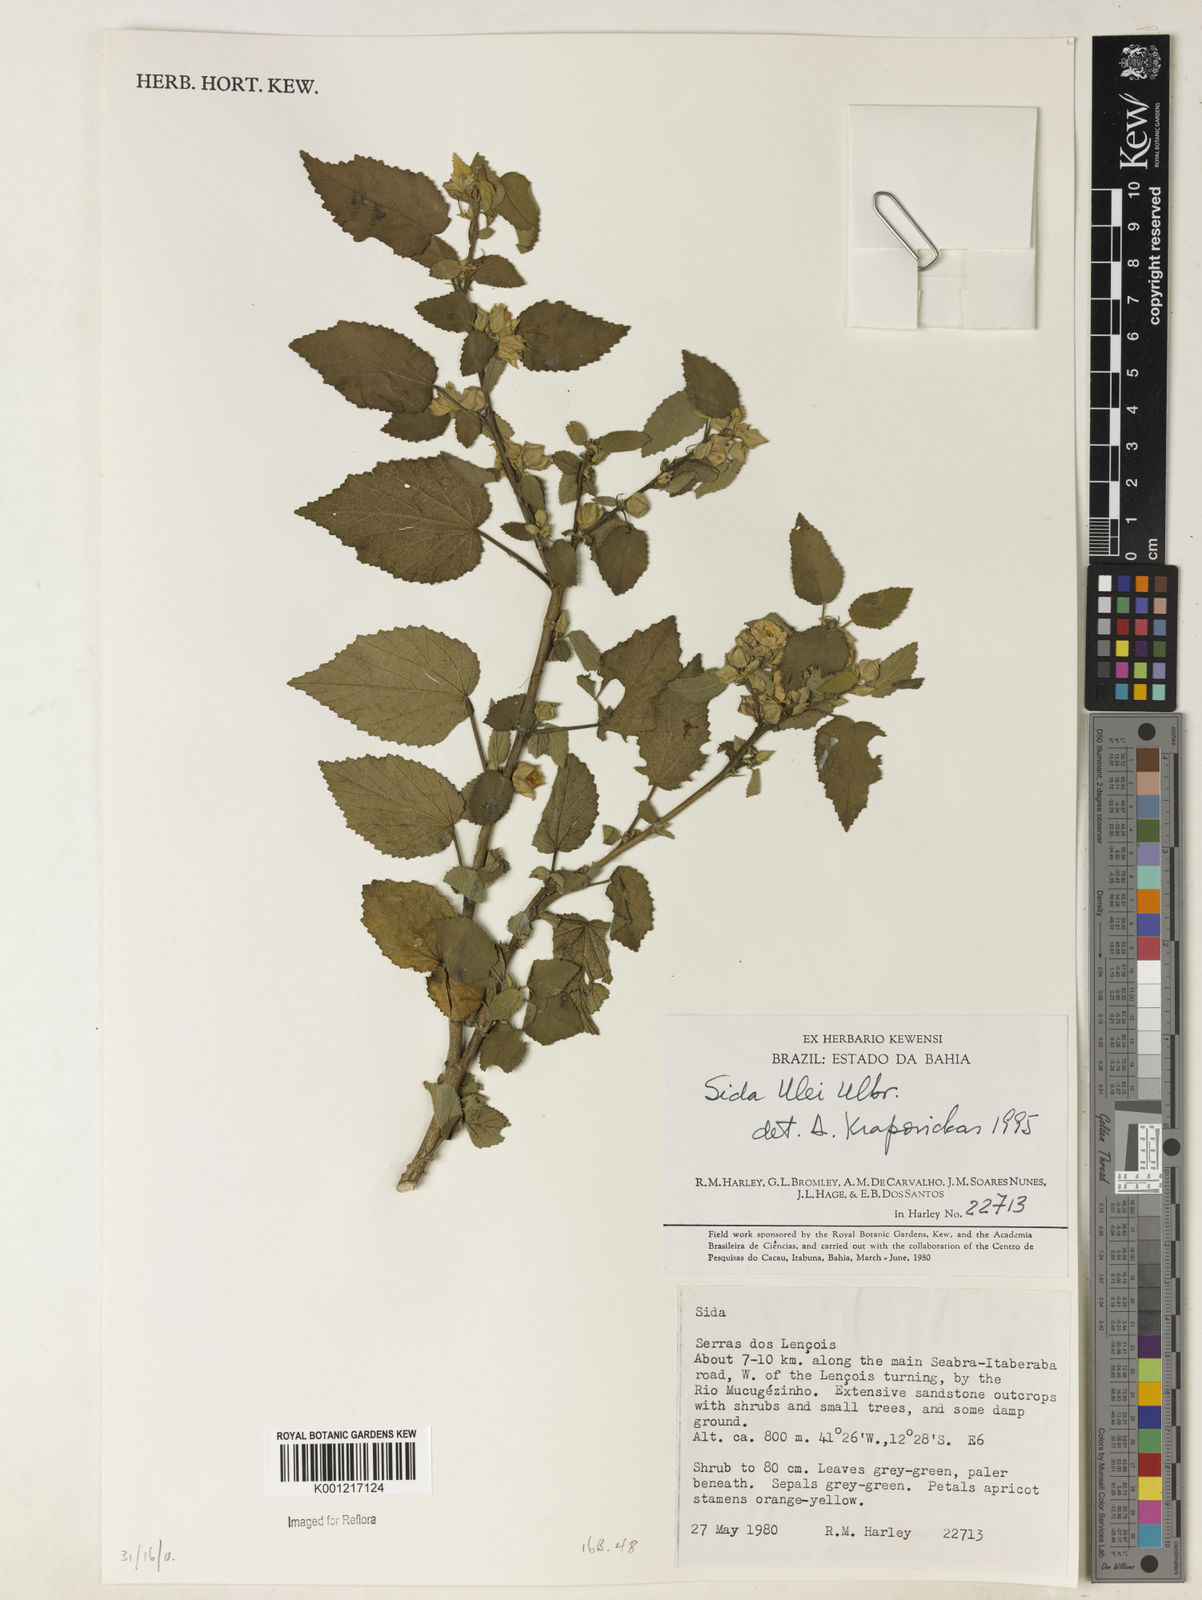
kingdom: Plantae
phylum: Tracheophyta
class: Magnoliopsida
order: Malvales
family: Malvaceae
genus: Sida
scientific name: Sida ulei
